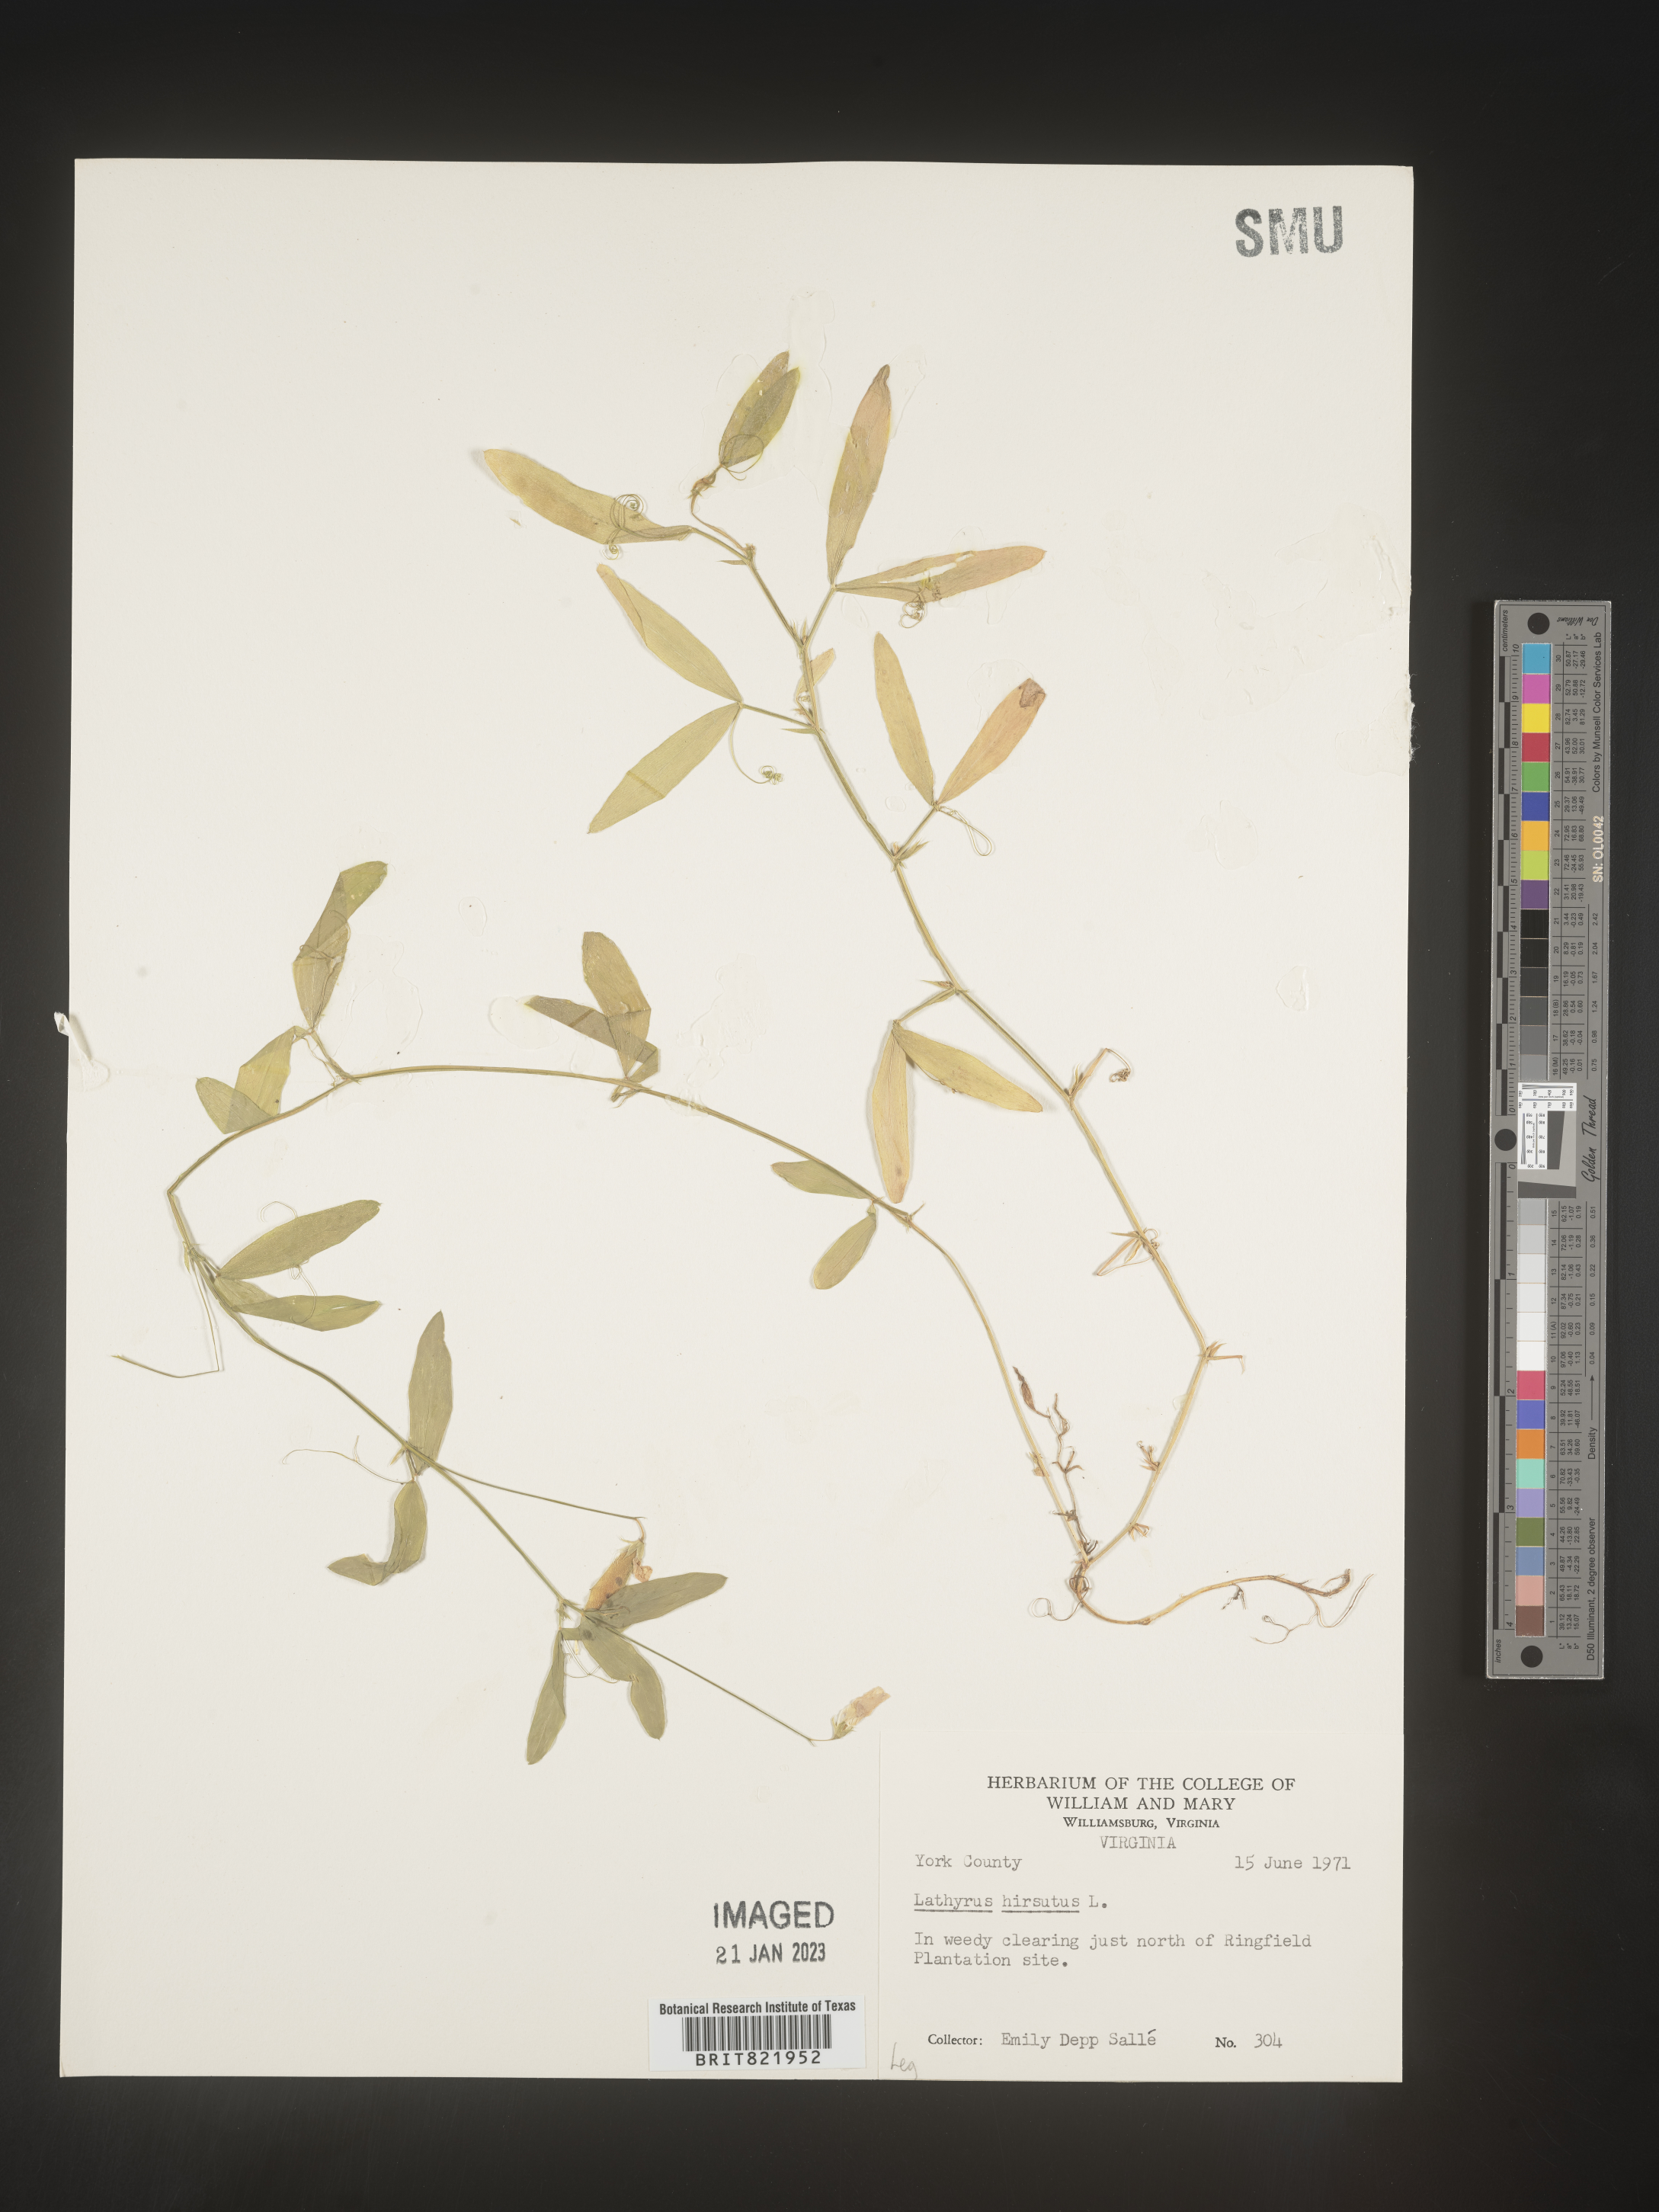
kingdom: Plantae
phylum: Tracheophyta
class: Magnoliopsida
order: Fabales
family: Fabaceae
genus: Lathyrus
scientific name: Lathyrus hirsutus
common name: Hairy vetchling
